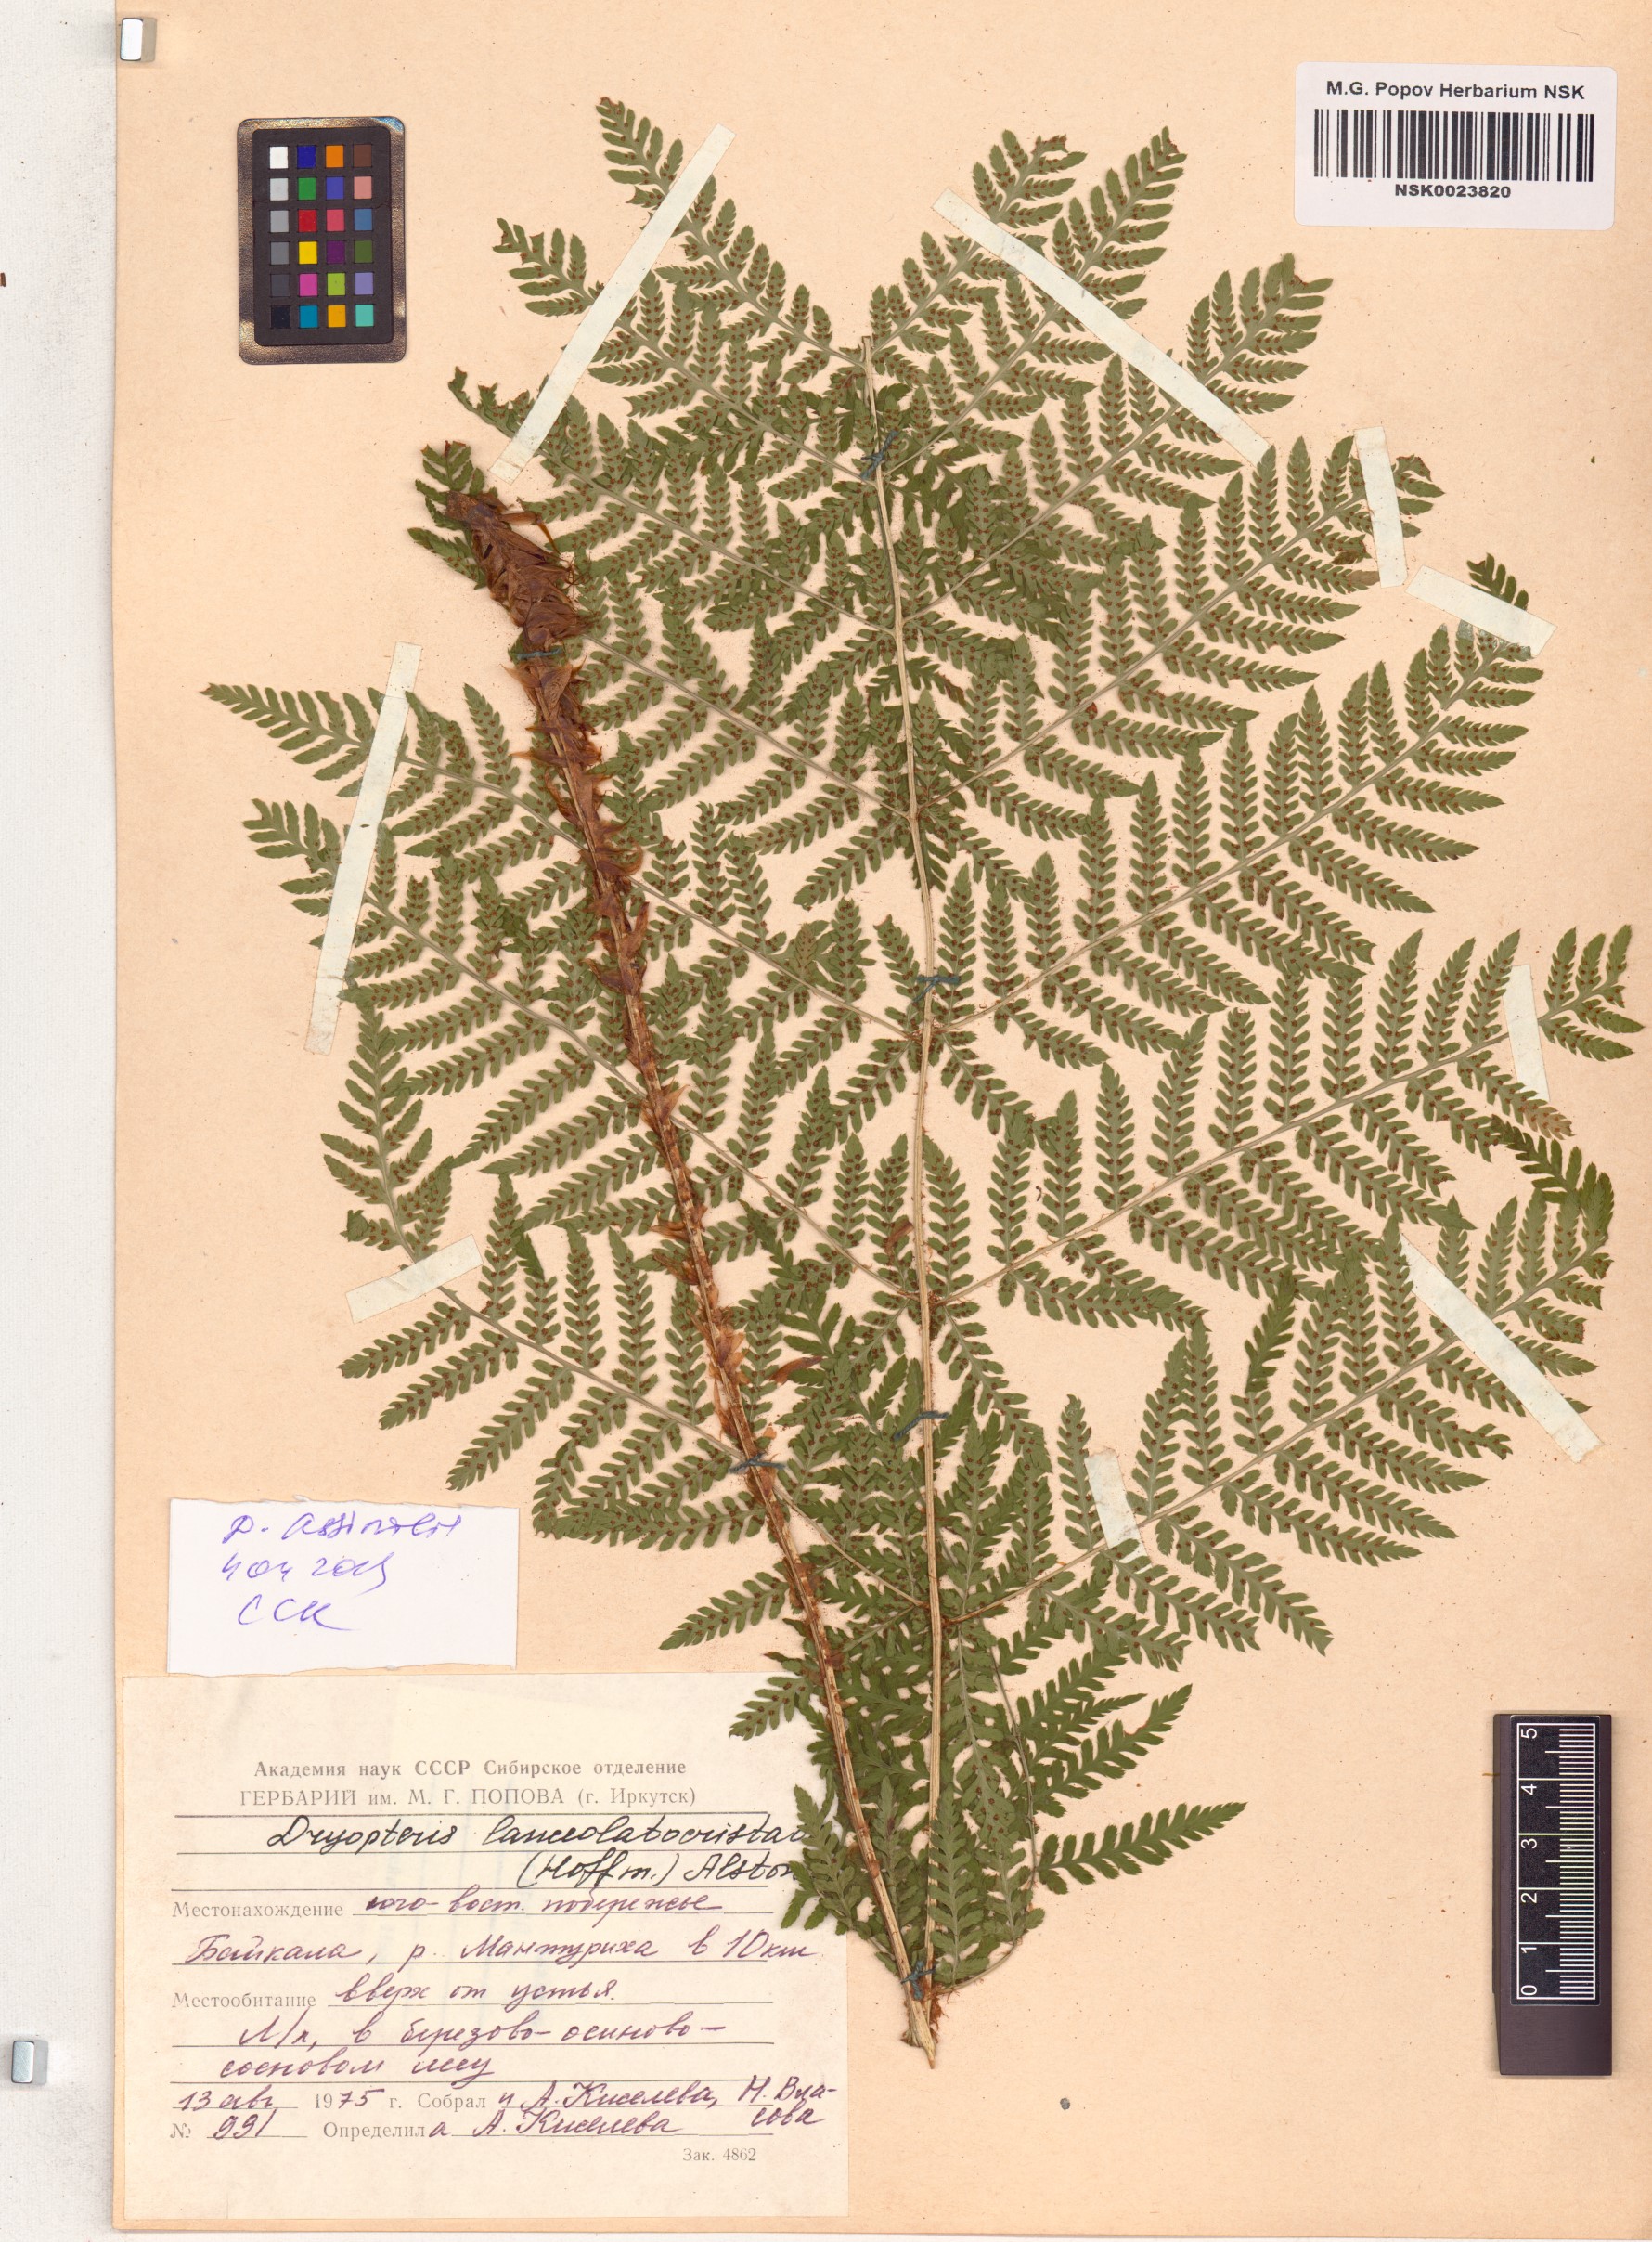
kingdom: Plantae
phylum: Tracheophyta
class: Polypodiopsida
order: Polypodiales
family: Dryopteridaceae
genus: Dryopteris
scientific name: Dryopteris expansa
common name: Northern buckler fern
